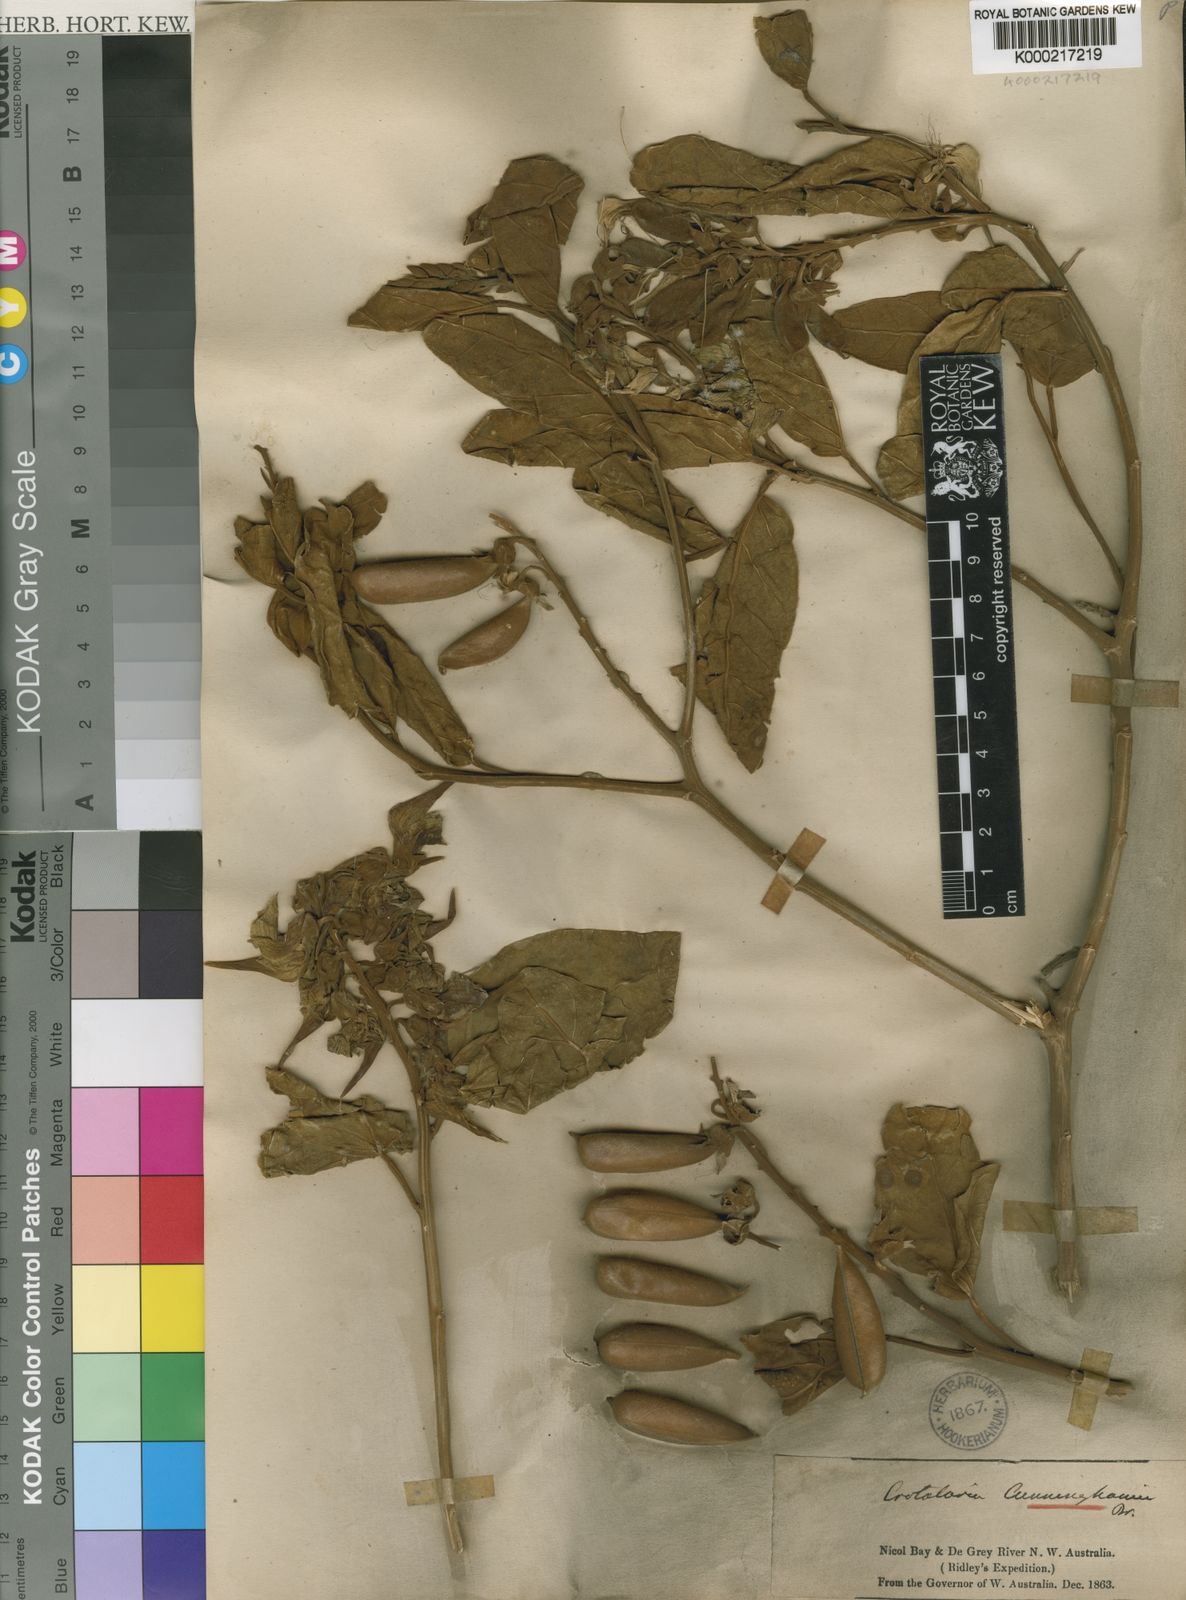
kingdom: Plantae
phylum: Tracheophyta
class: Magnoliopsida
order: Fabales
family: Fabaceae
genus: Crotalaria
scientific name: Crotalaria cunninghamii
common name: Birdflower rattlepod
